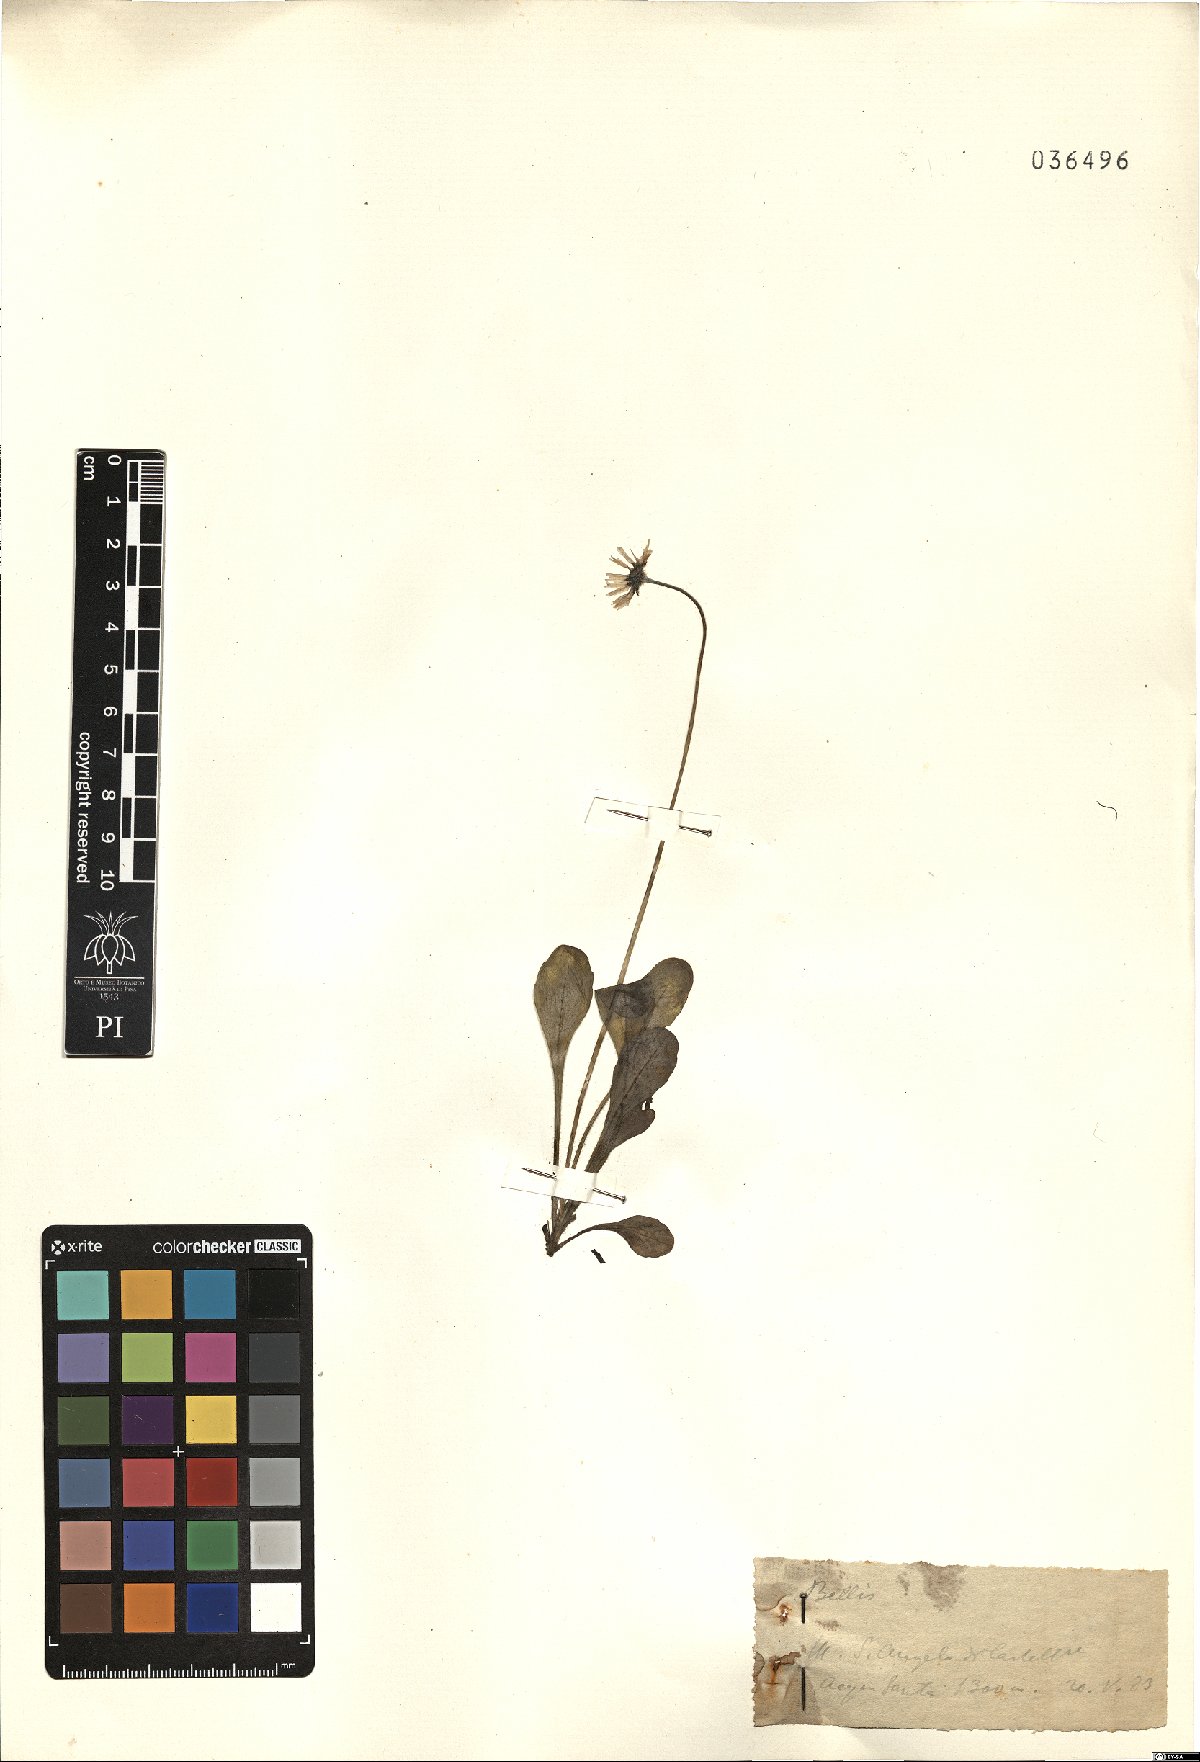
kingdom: Plantae
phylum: Tracheophyta
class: Magnoliopsida
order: Asterales
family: Asteraceae
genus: Bellis
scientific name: Bellis
